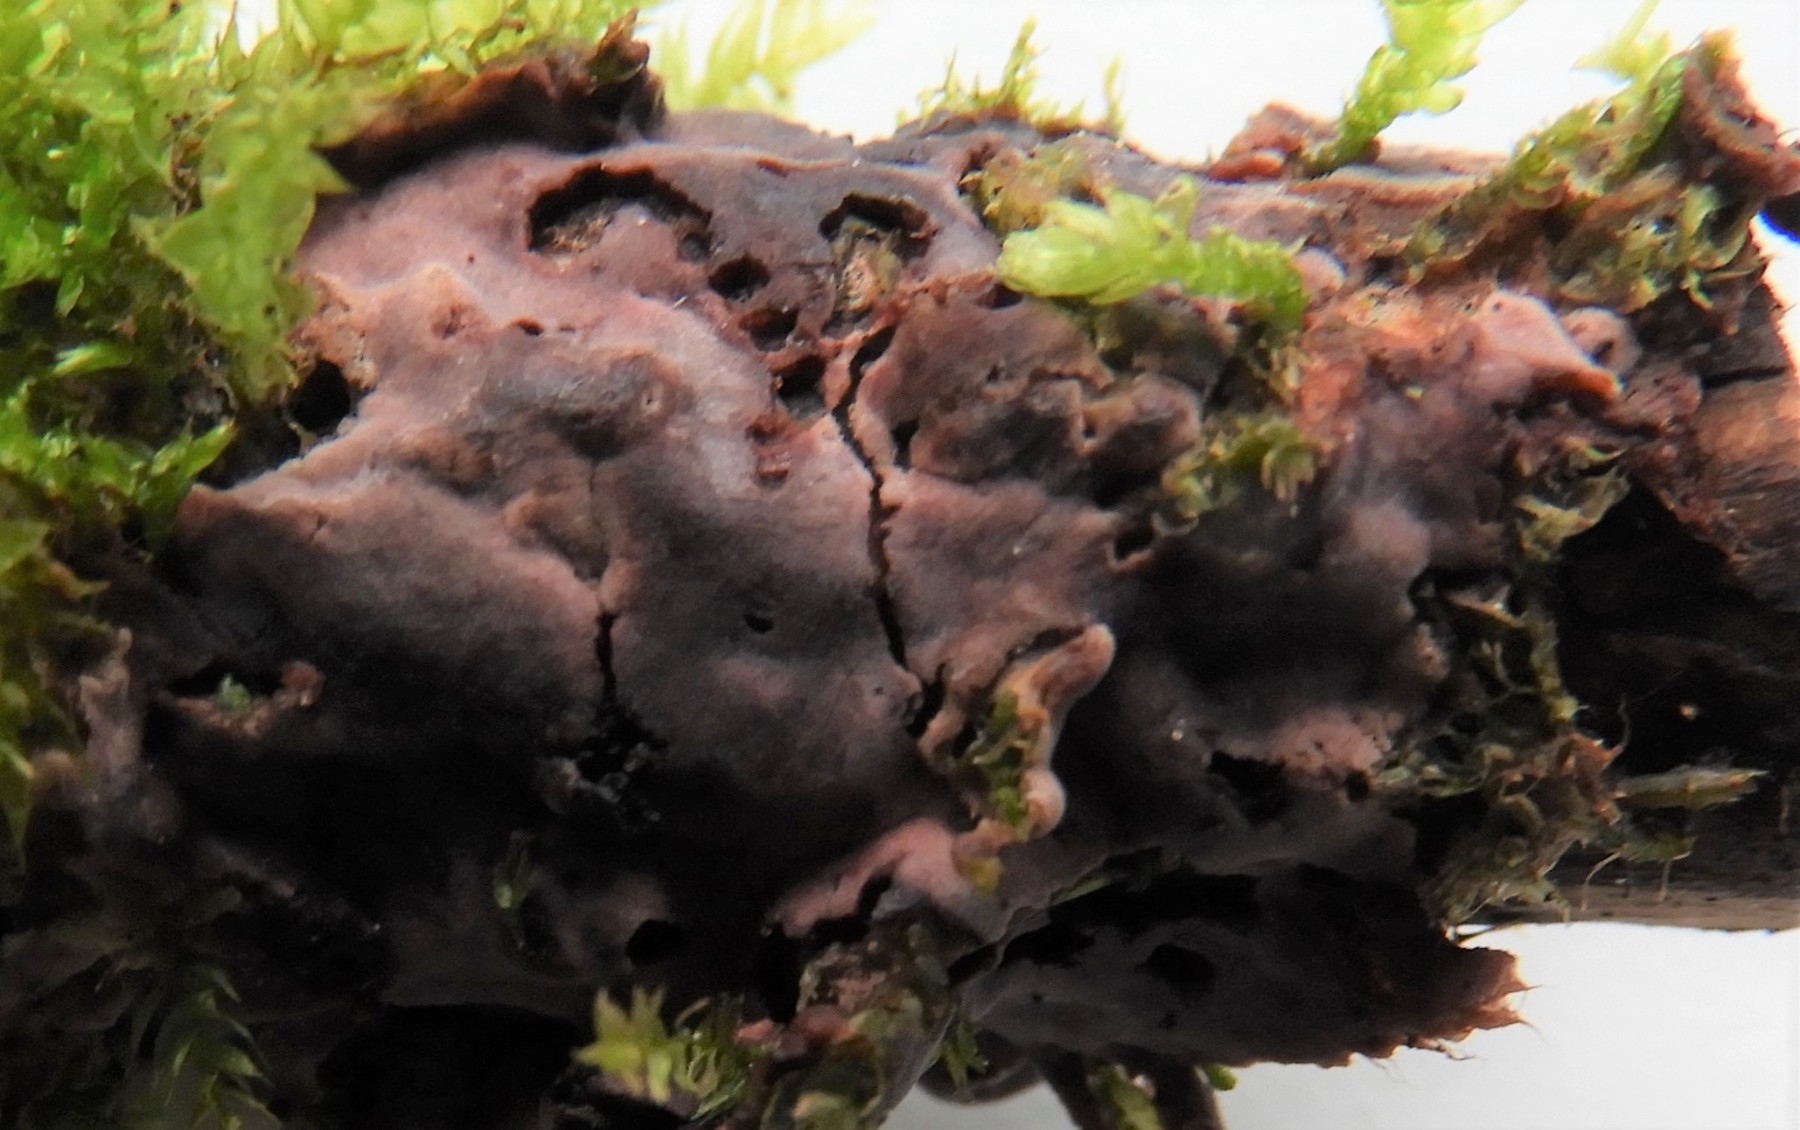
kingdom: Fungi
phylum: Ascomycota
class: Dothideomycetes
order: Tubeufiales
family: Tubeufiaceae
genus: Helicosporium
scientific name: Helicosporium
